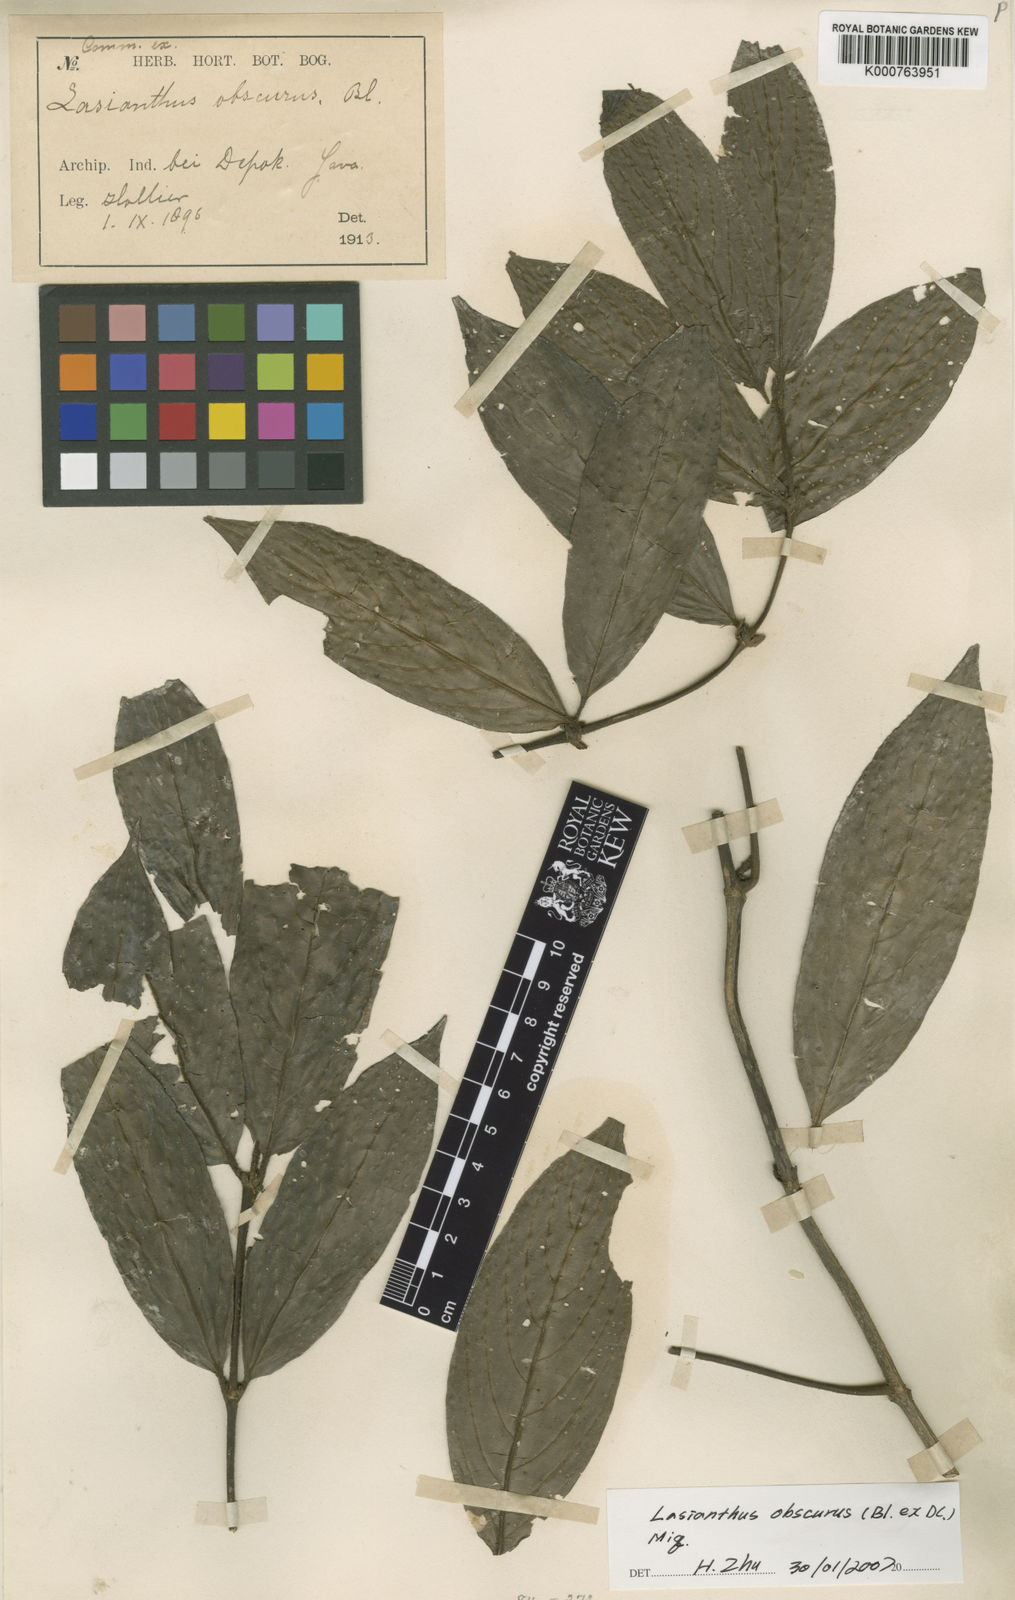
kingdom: Plantae
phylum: Tracheophyta
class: Magnoliopsida
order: Gentianales
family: Rubiaceae
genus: Lasianthus
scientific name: Lasianthus obscurus
